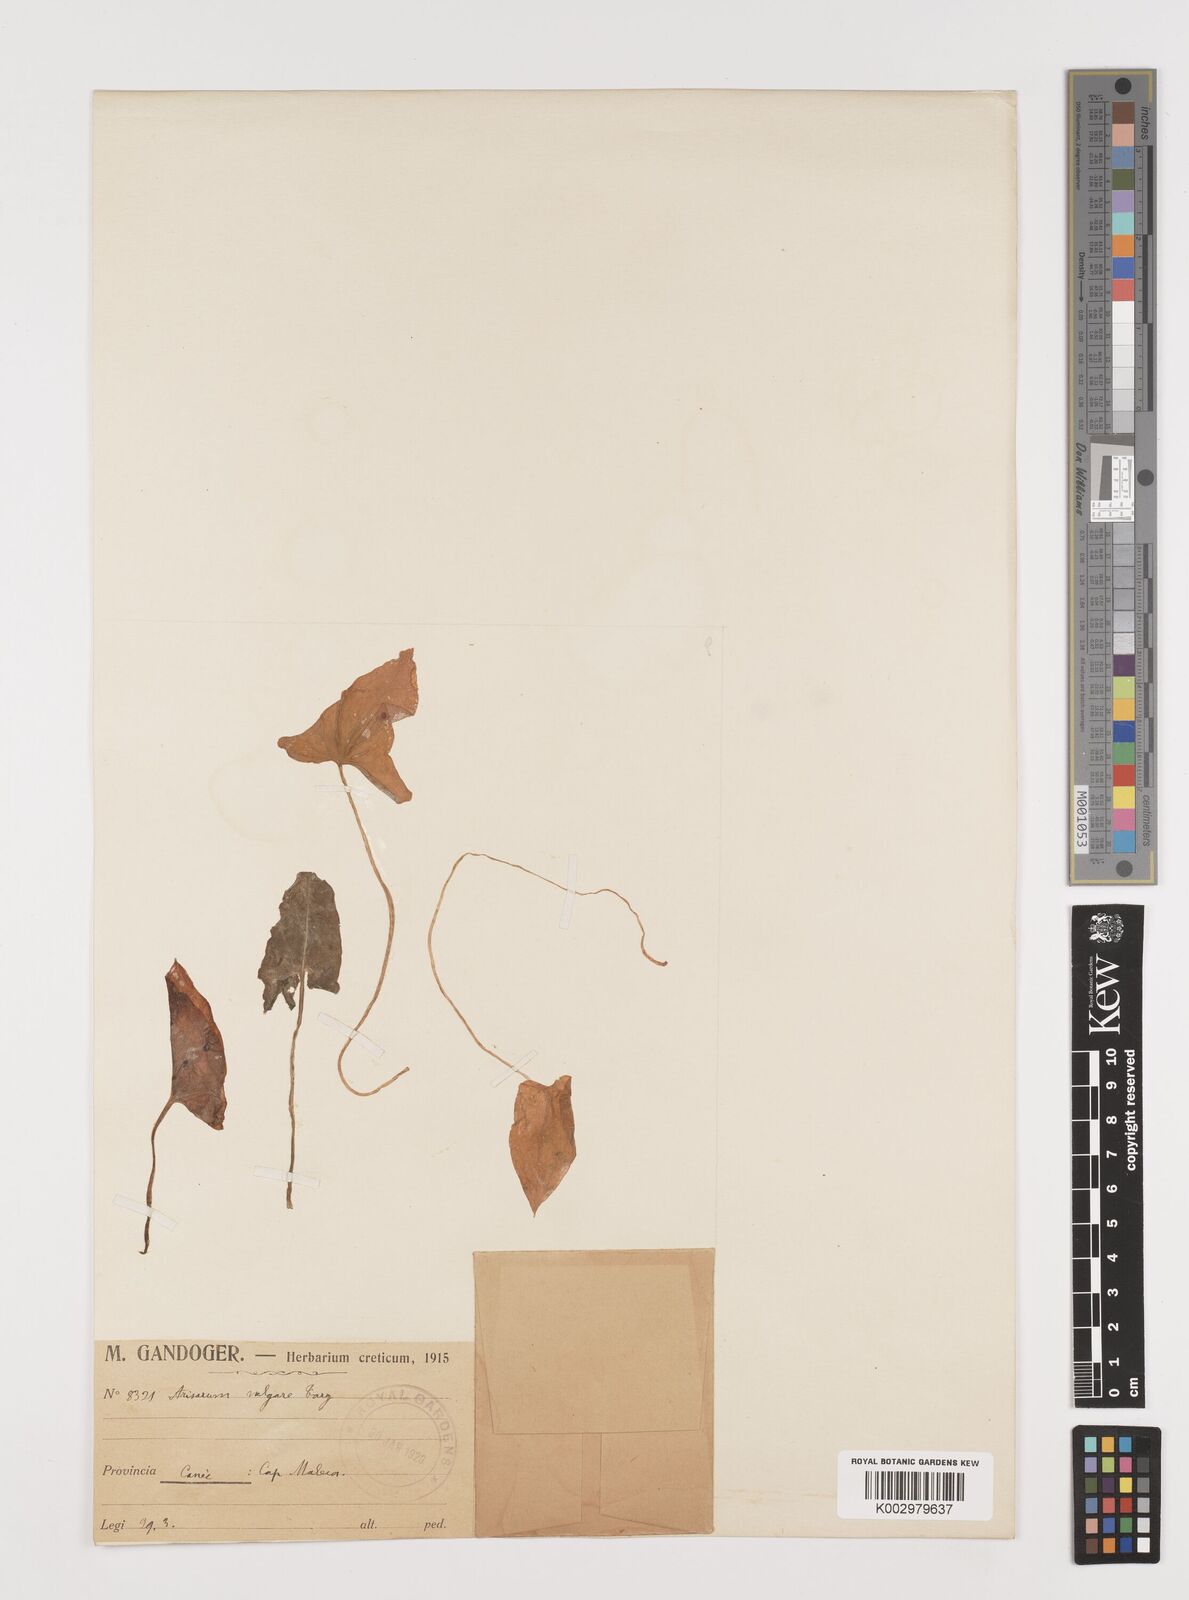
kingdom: Plantae
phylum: Tracheophyta
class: Liliopsida
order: Alismatales
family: Araceae
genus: Arisarum
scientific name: Arisarum vulgare
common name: Common arisarum
